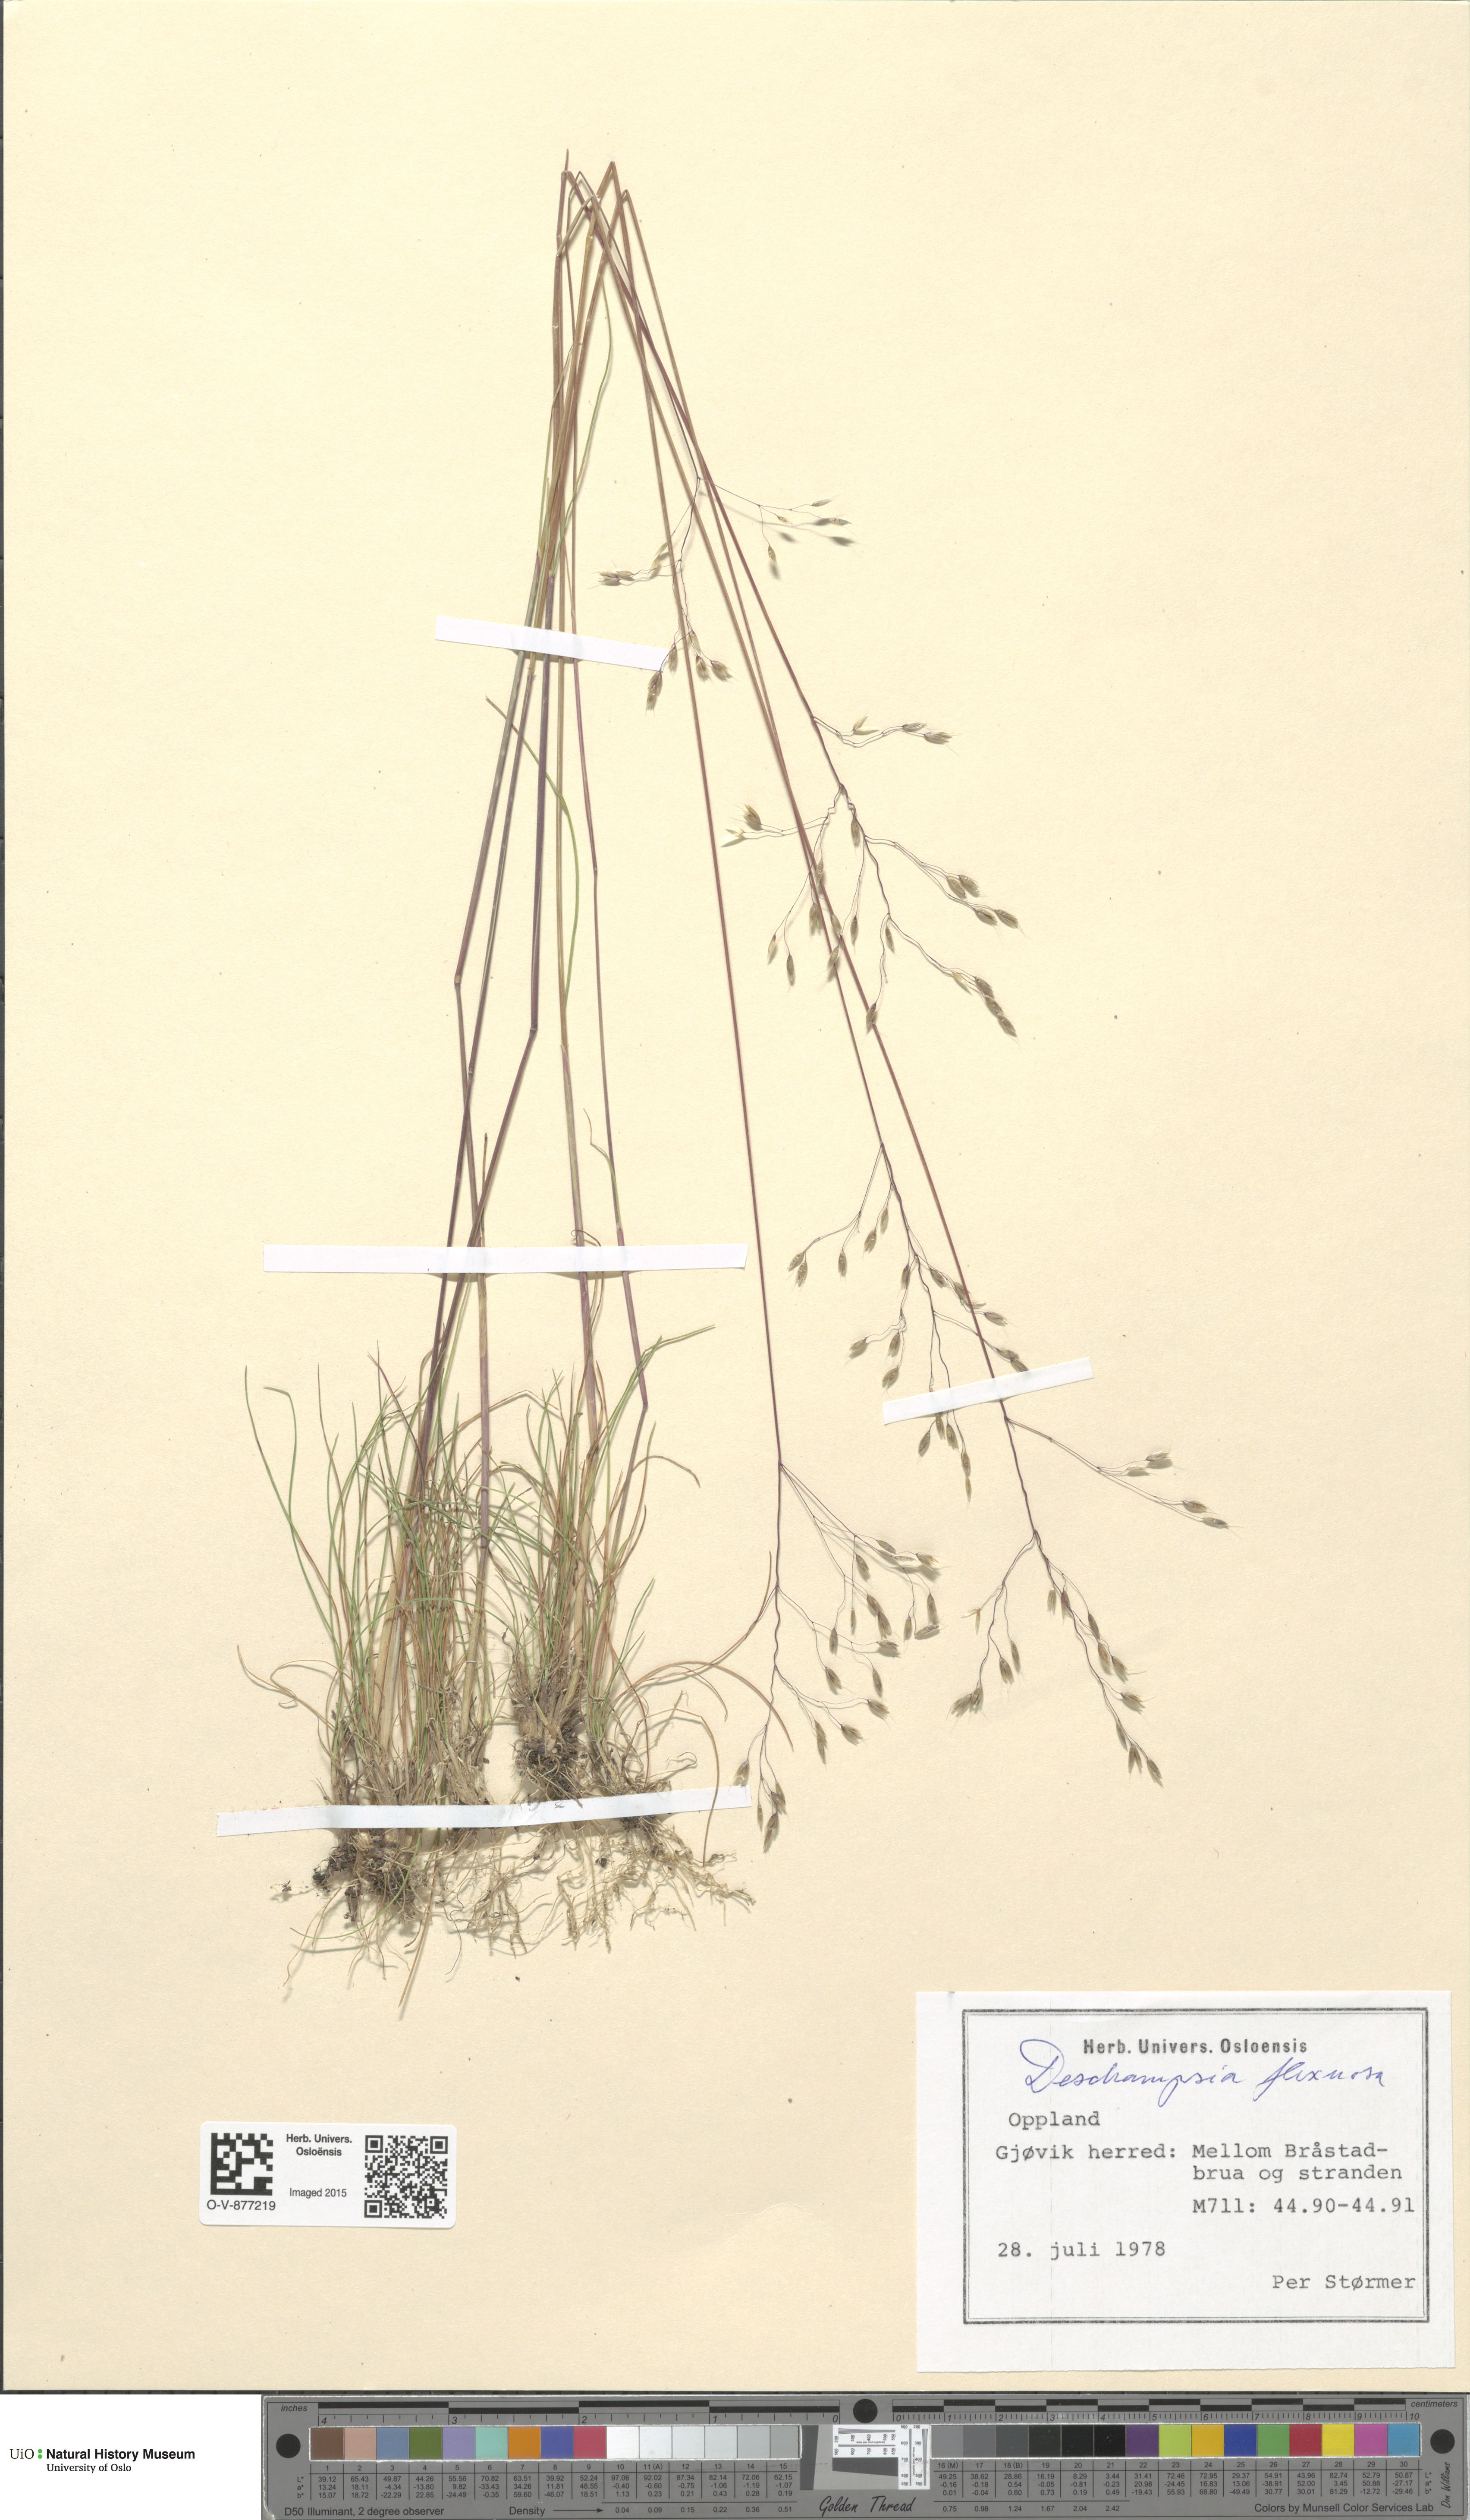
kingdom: Plantae
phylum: Tracheophyta
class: Liliopsida
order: Poales
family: Poaceae
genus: Avenella
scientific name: Avenella flexuosa
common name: Wavy hairgrass
